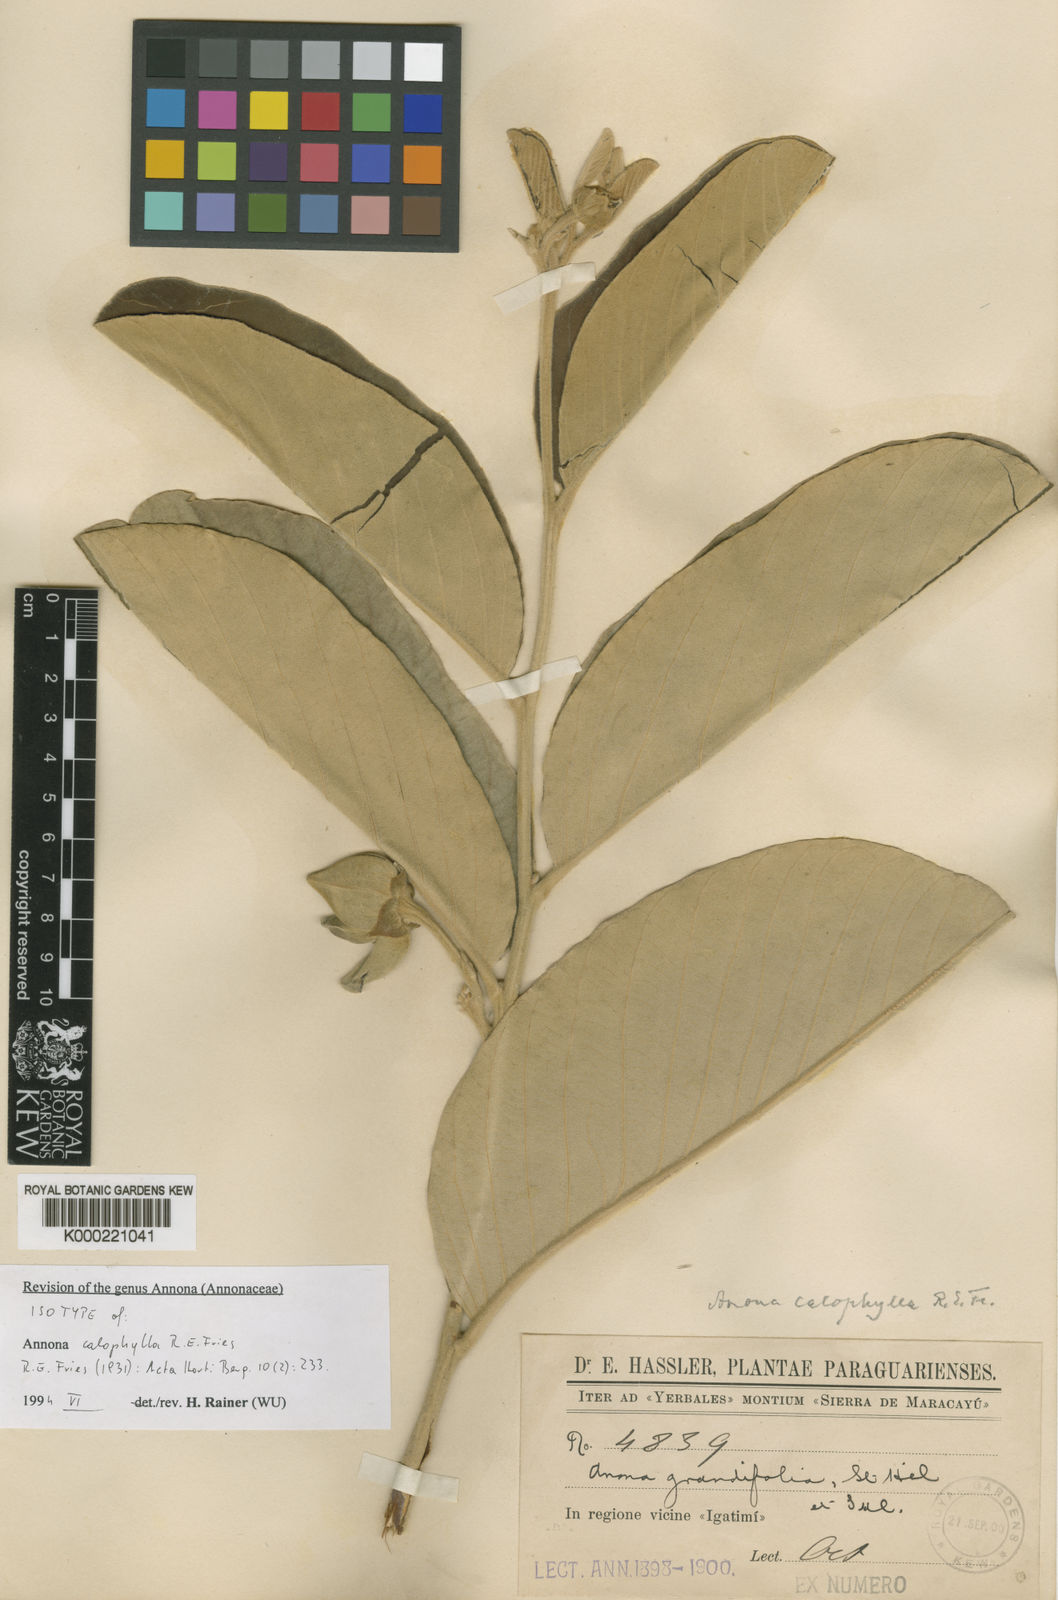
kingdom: Plantae
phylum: Tracheophyta
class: Magnoliopsida
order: Magnoliales
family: Annonaceae
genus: Annona
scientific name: Annona calophylla
